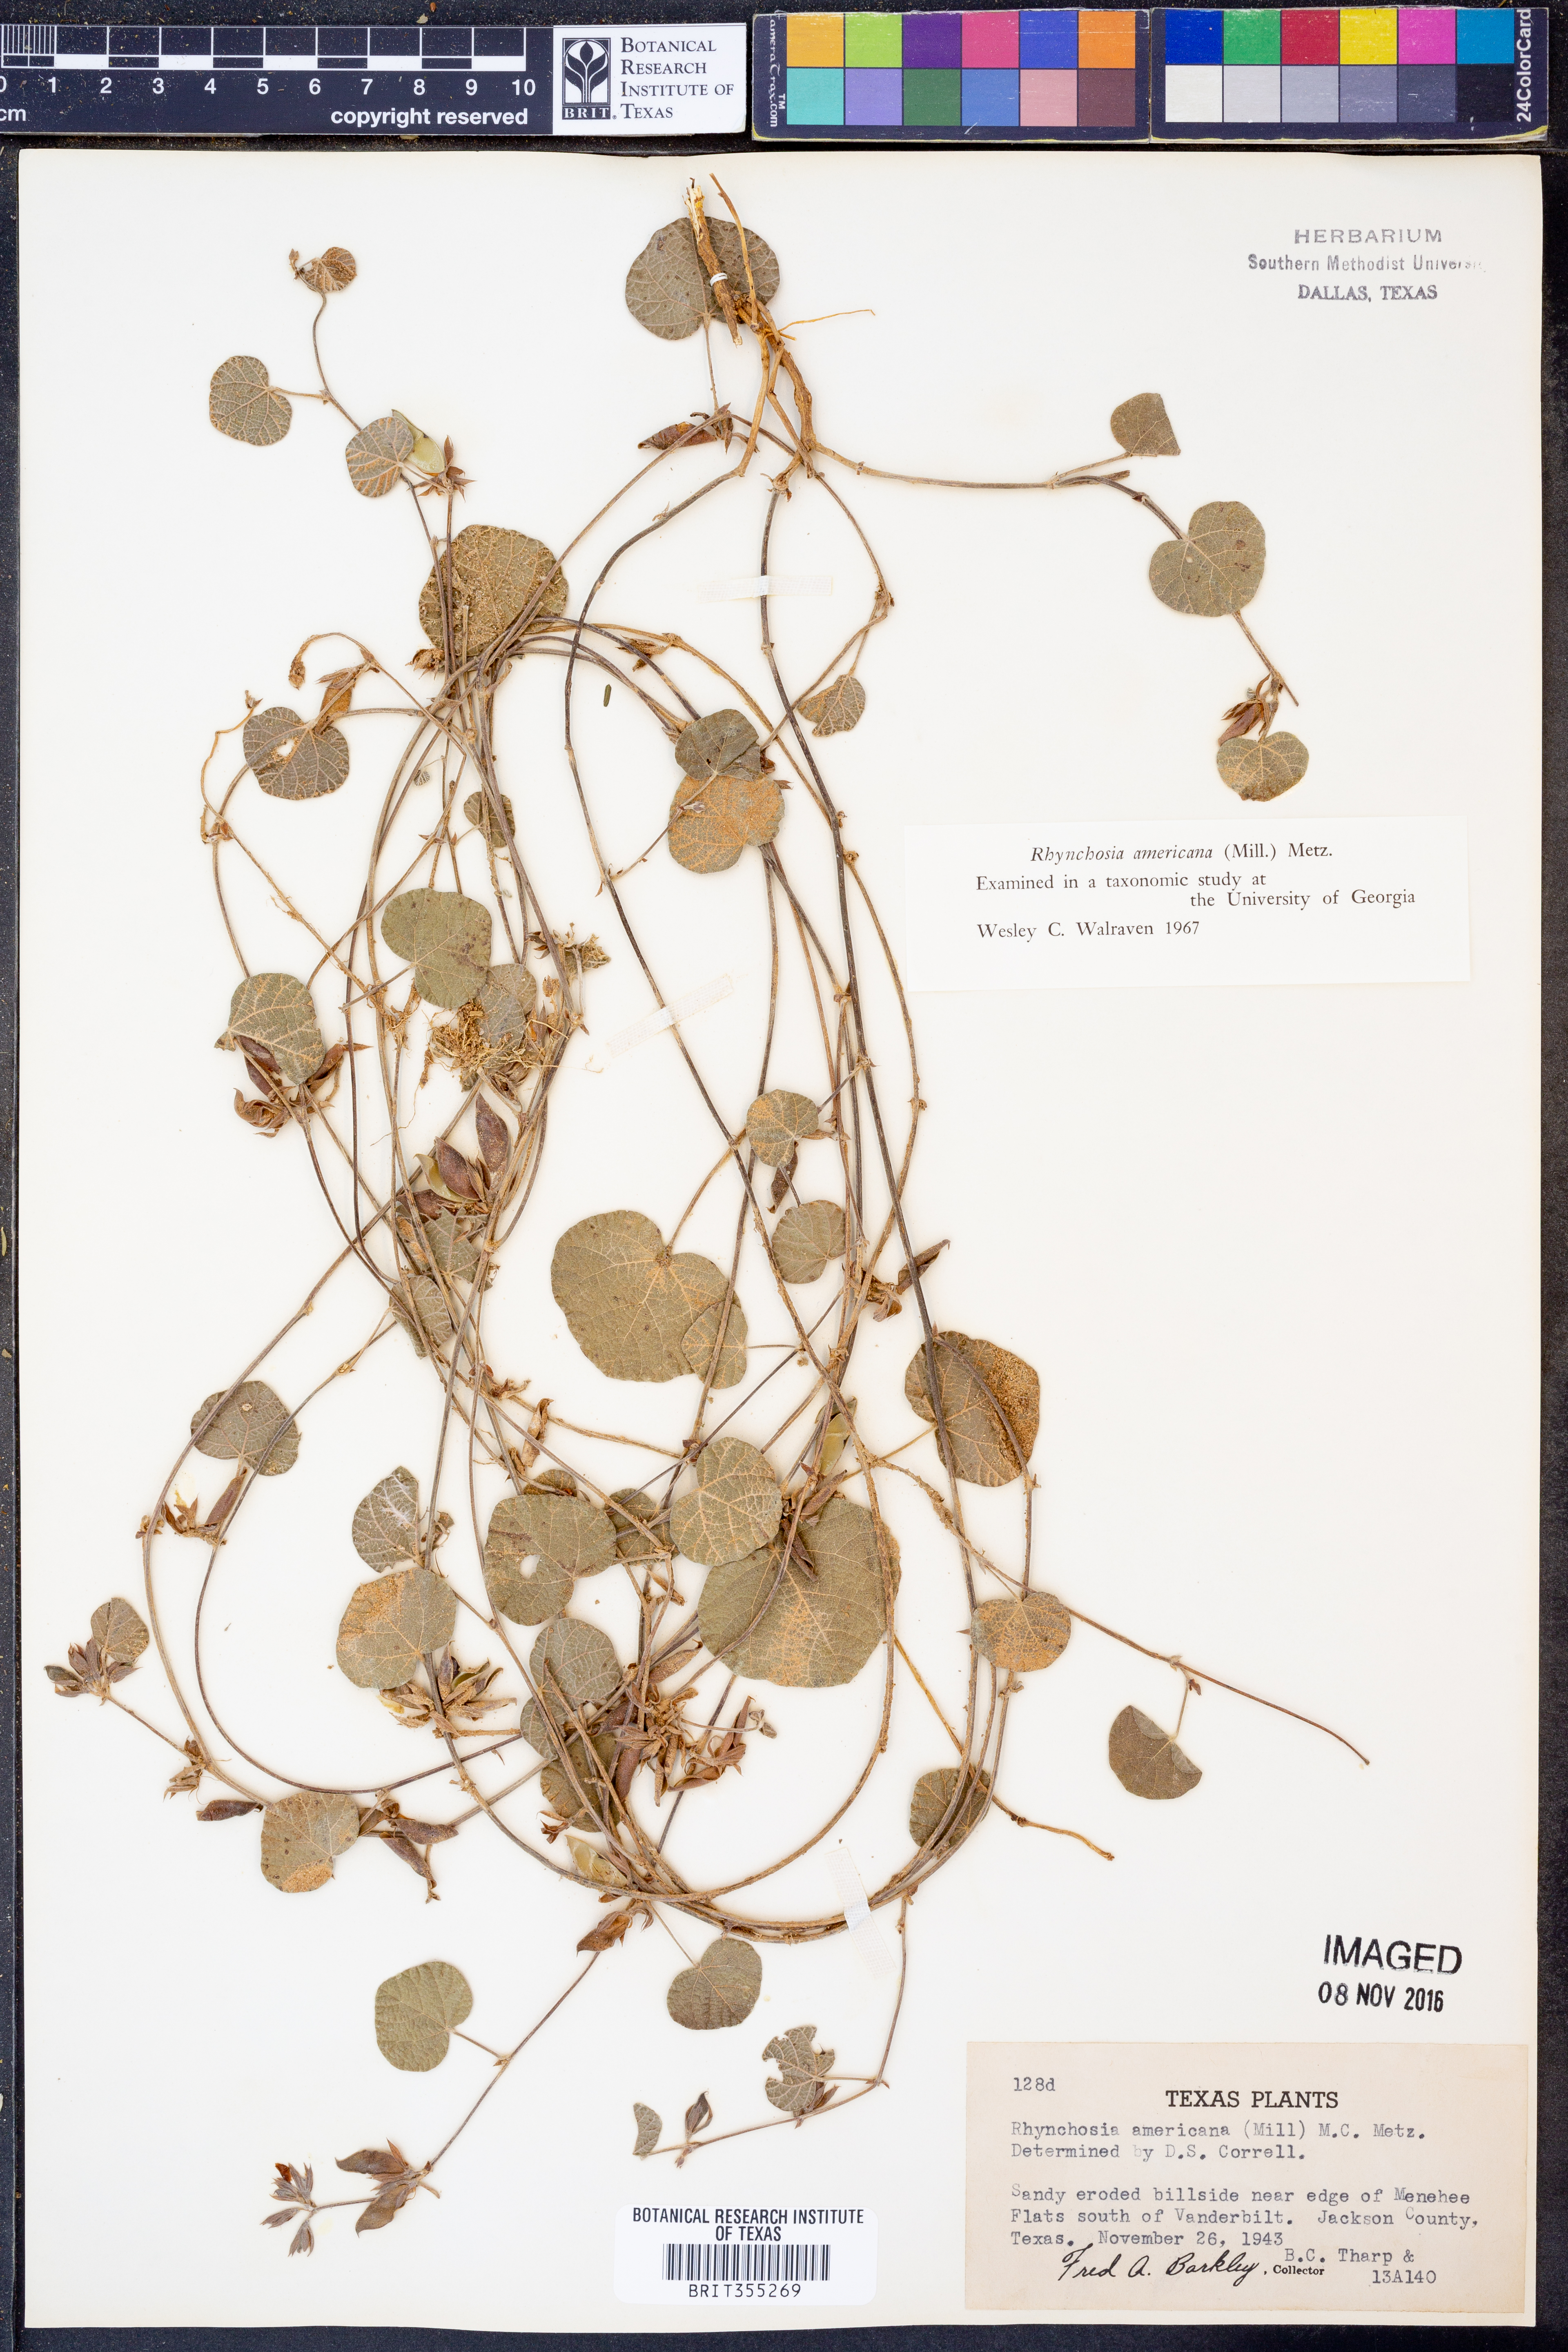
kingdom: Plantae
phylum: Tracheophyta
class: Magnoliopsida
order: Fabales
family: Fabaceae
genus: Rhynchosia
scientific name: Rhynchosia americana
